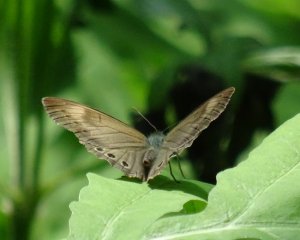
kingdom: Animalia
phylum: Arthropoda
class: Insecta
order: Lepidoptera
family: Nymphalidae
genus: Lethe
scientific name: Lethe eurydice
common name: Appalachian Eyed Brown
